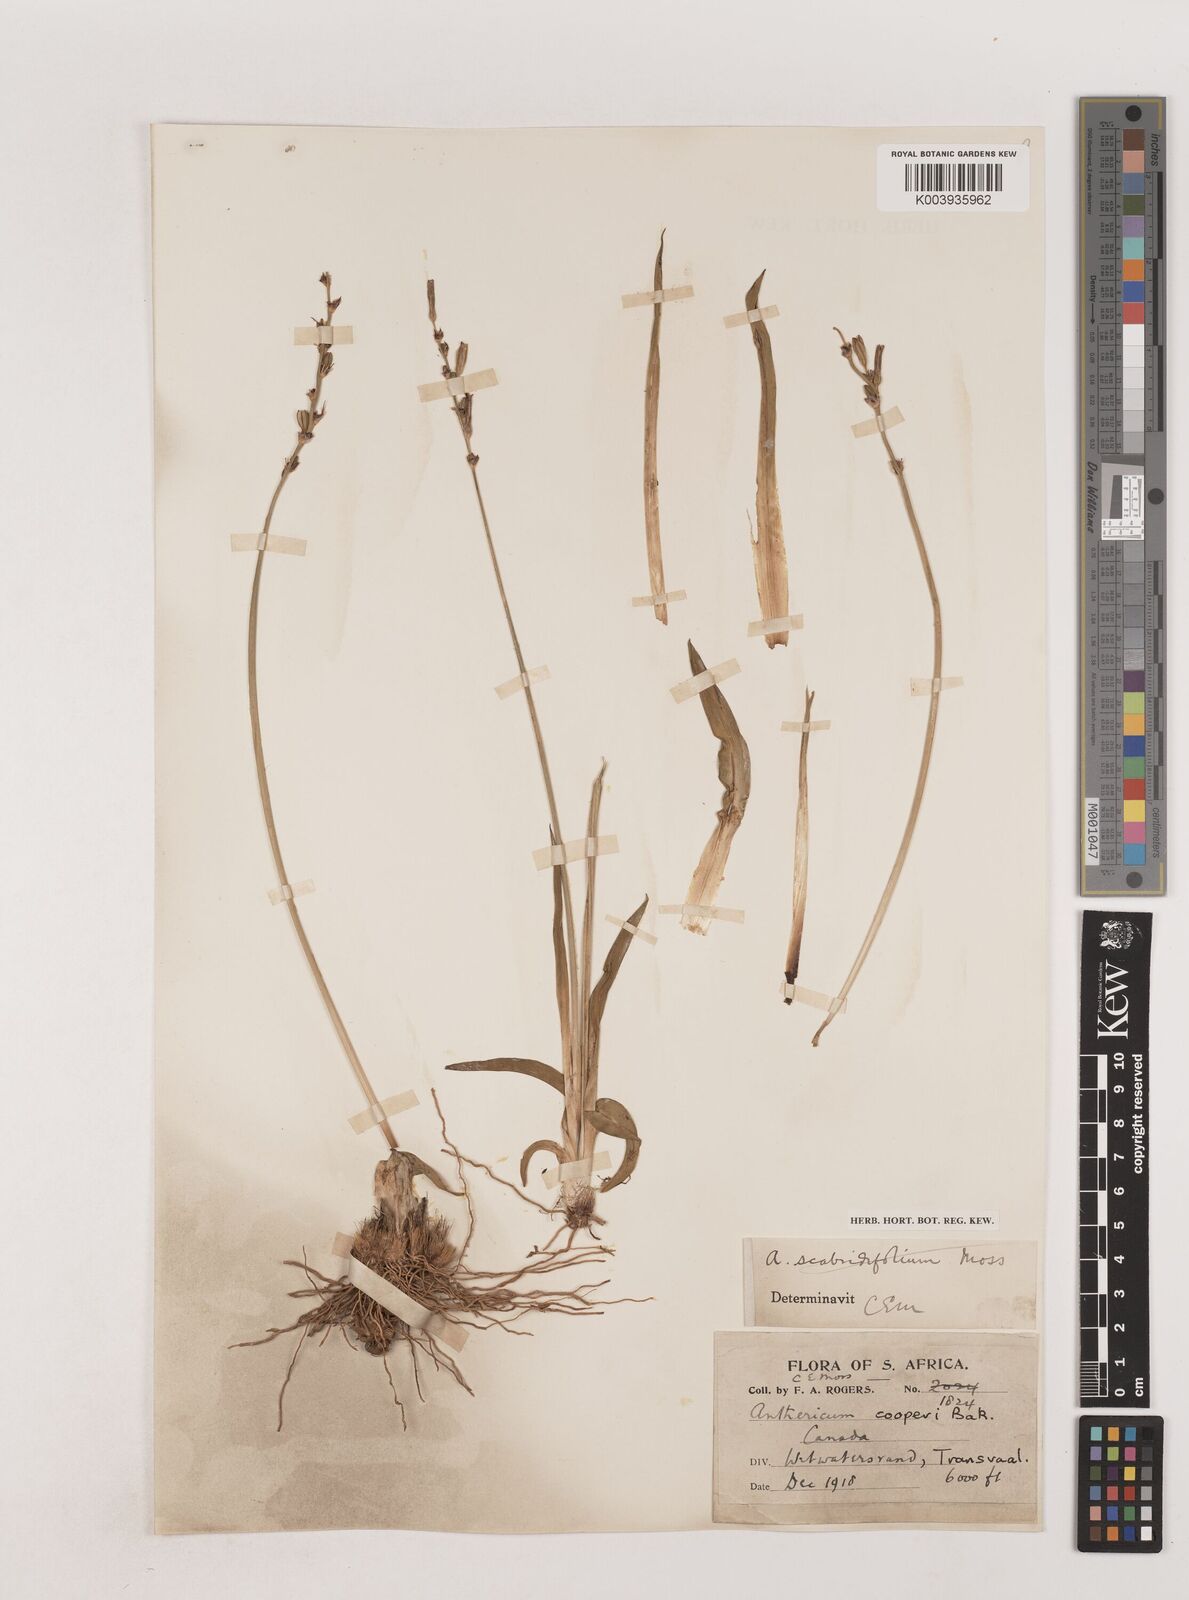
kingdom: Plantae
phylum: Tracheophyta
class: Liliopsida
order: Asparagales
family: Asparagaceae
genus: Chlorophytum
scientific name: Chlorophytum cooperi
